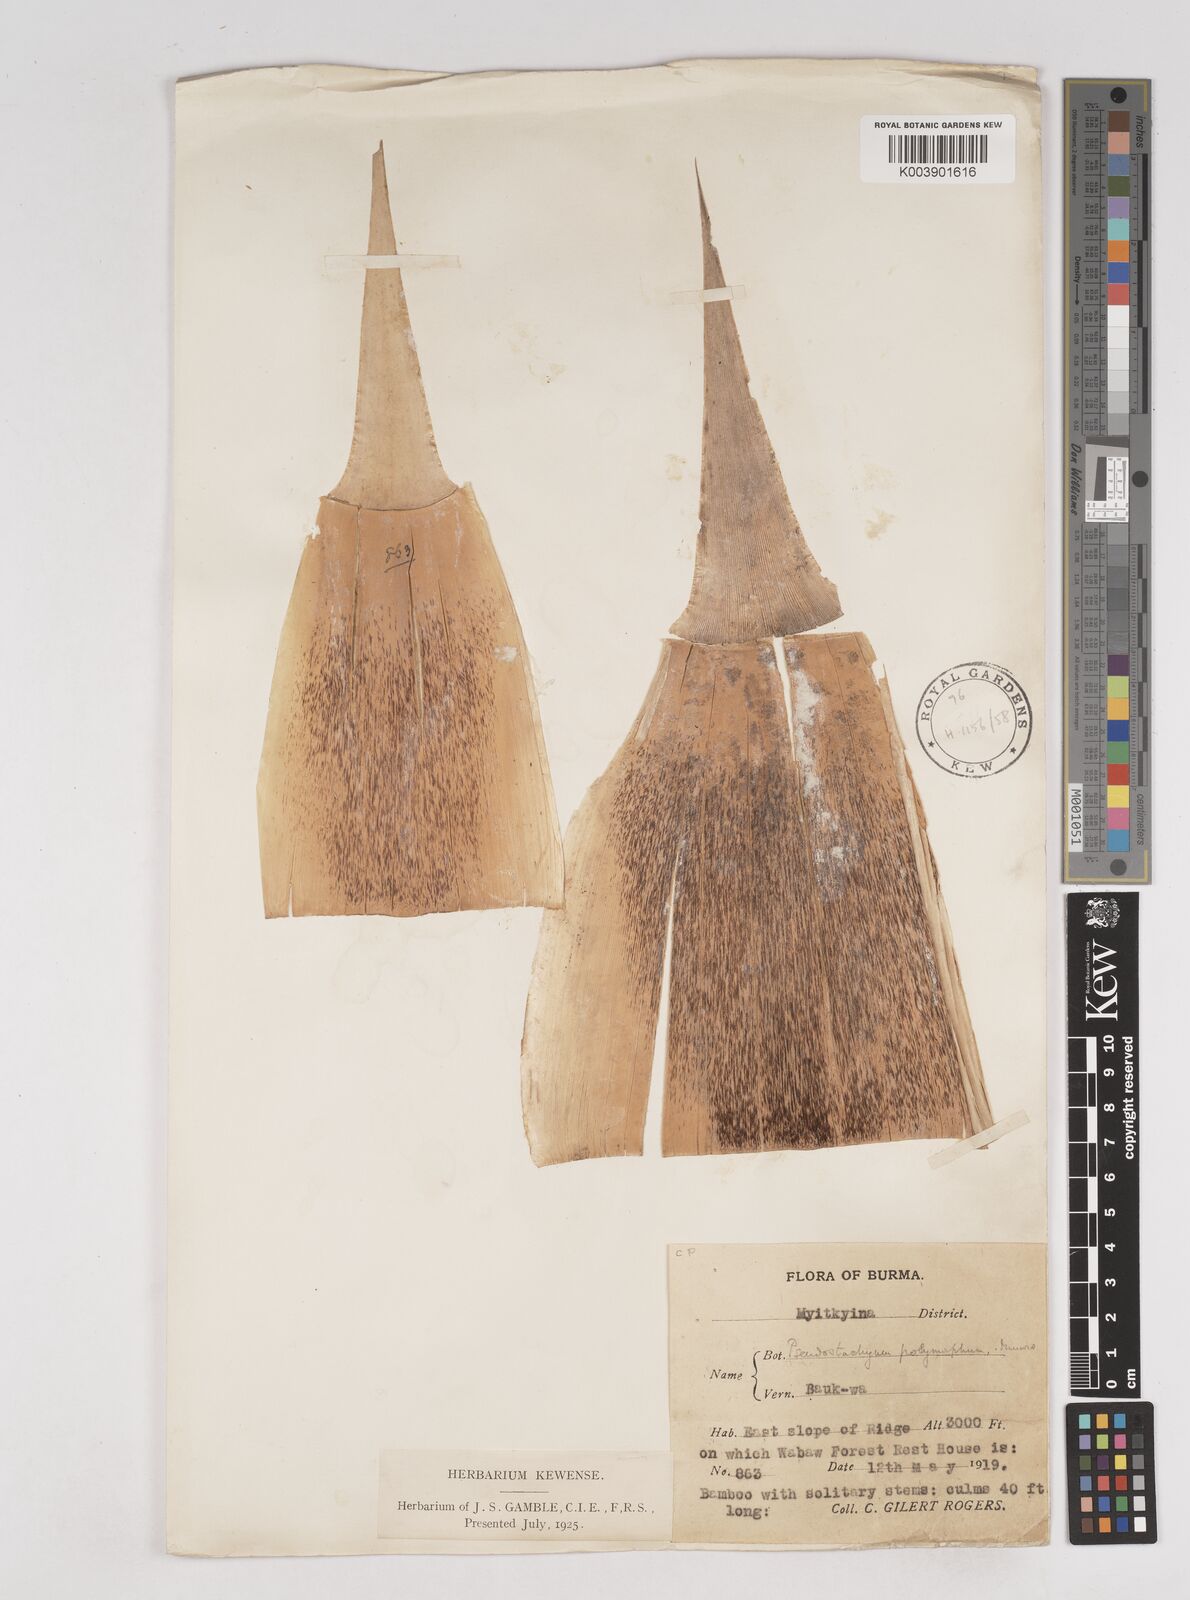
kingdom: Plantae
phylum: Tracheophyta
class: Liliopsida
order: Poales
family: Poaceae
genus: Pseudostachyum
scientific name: Pseudostachyum polymorphum
